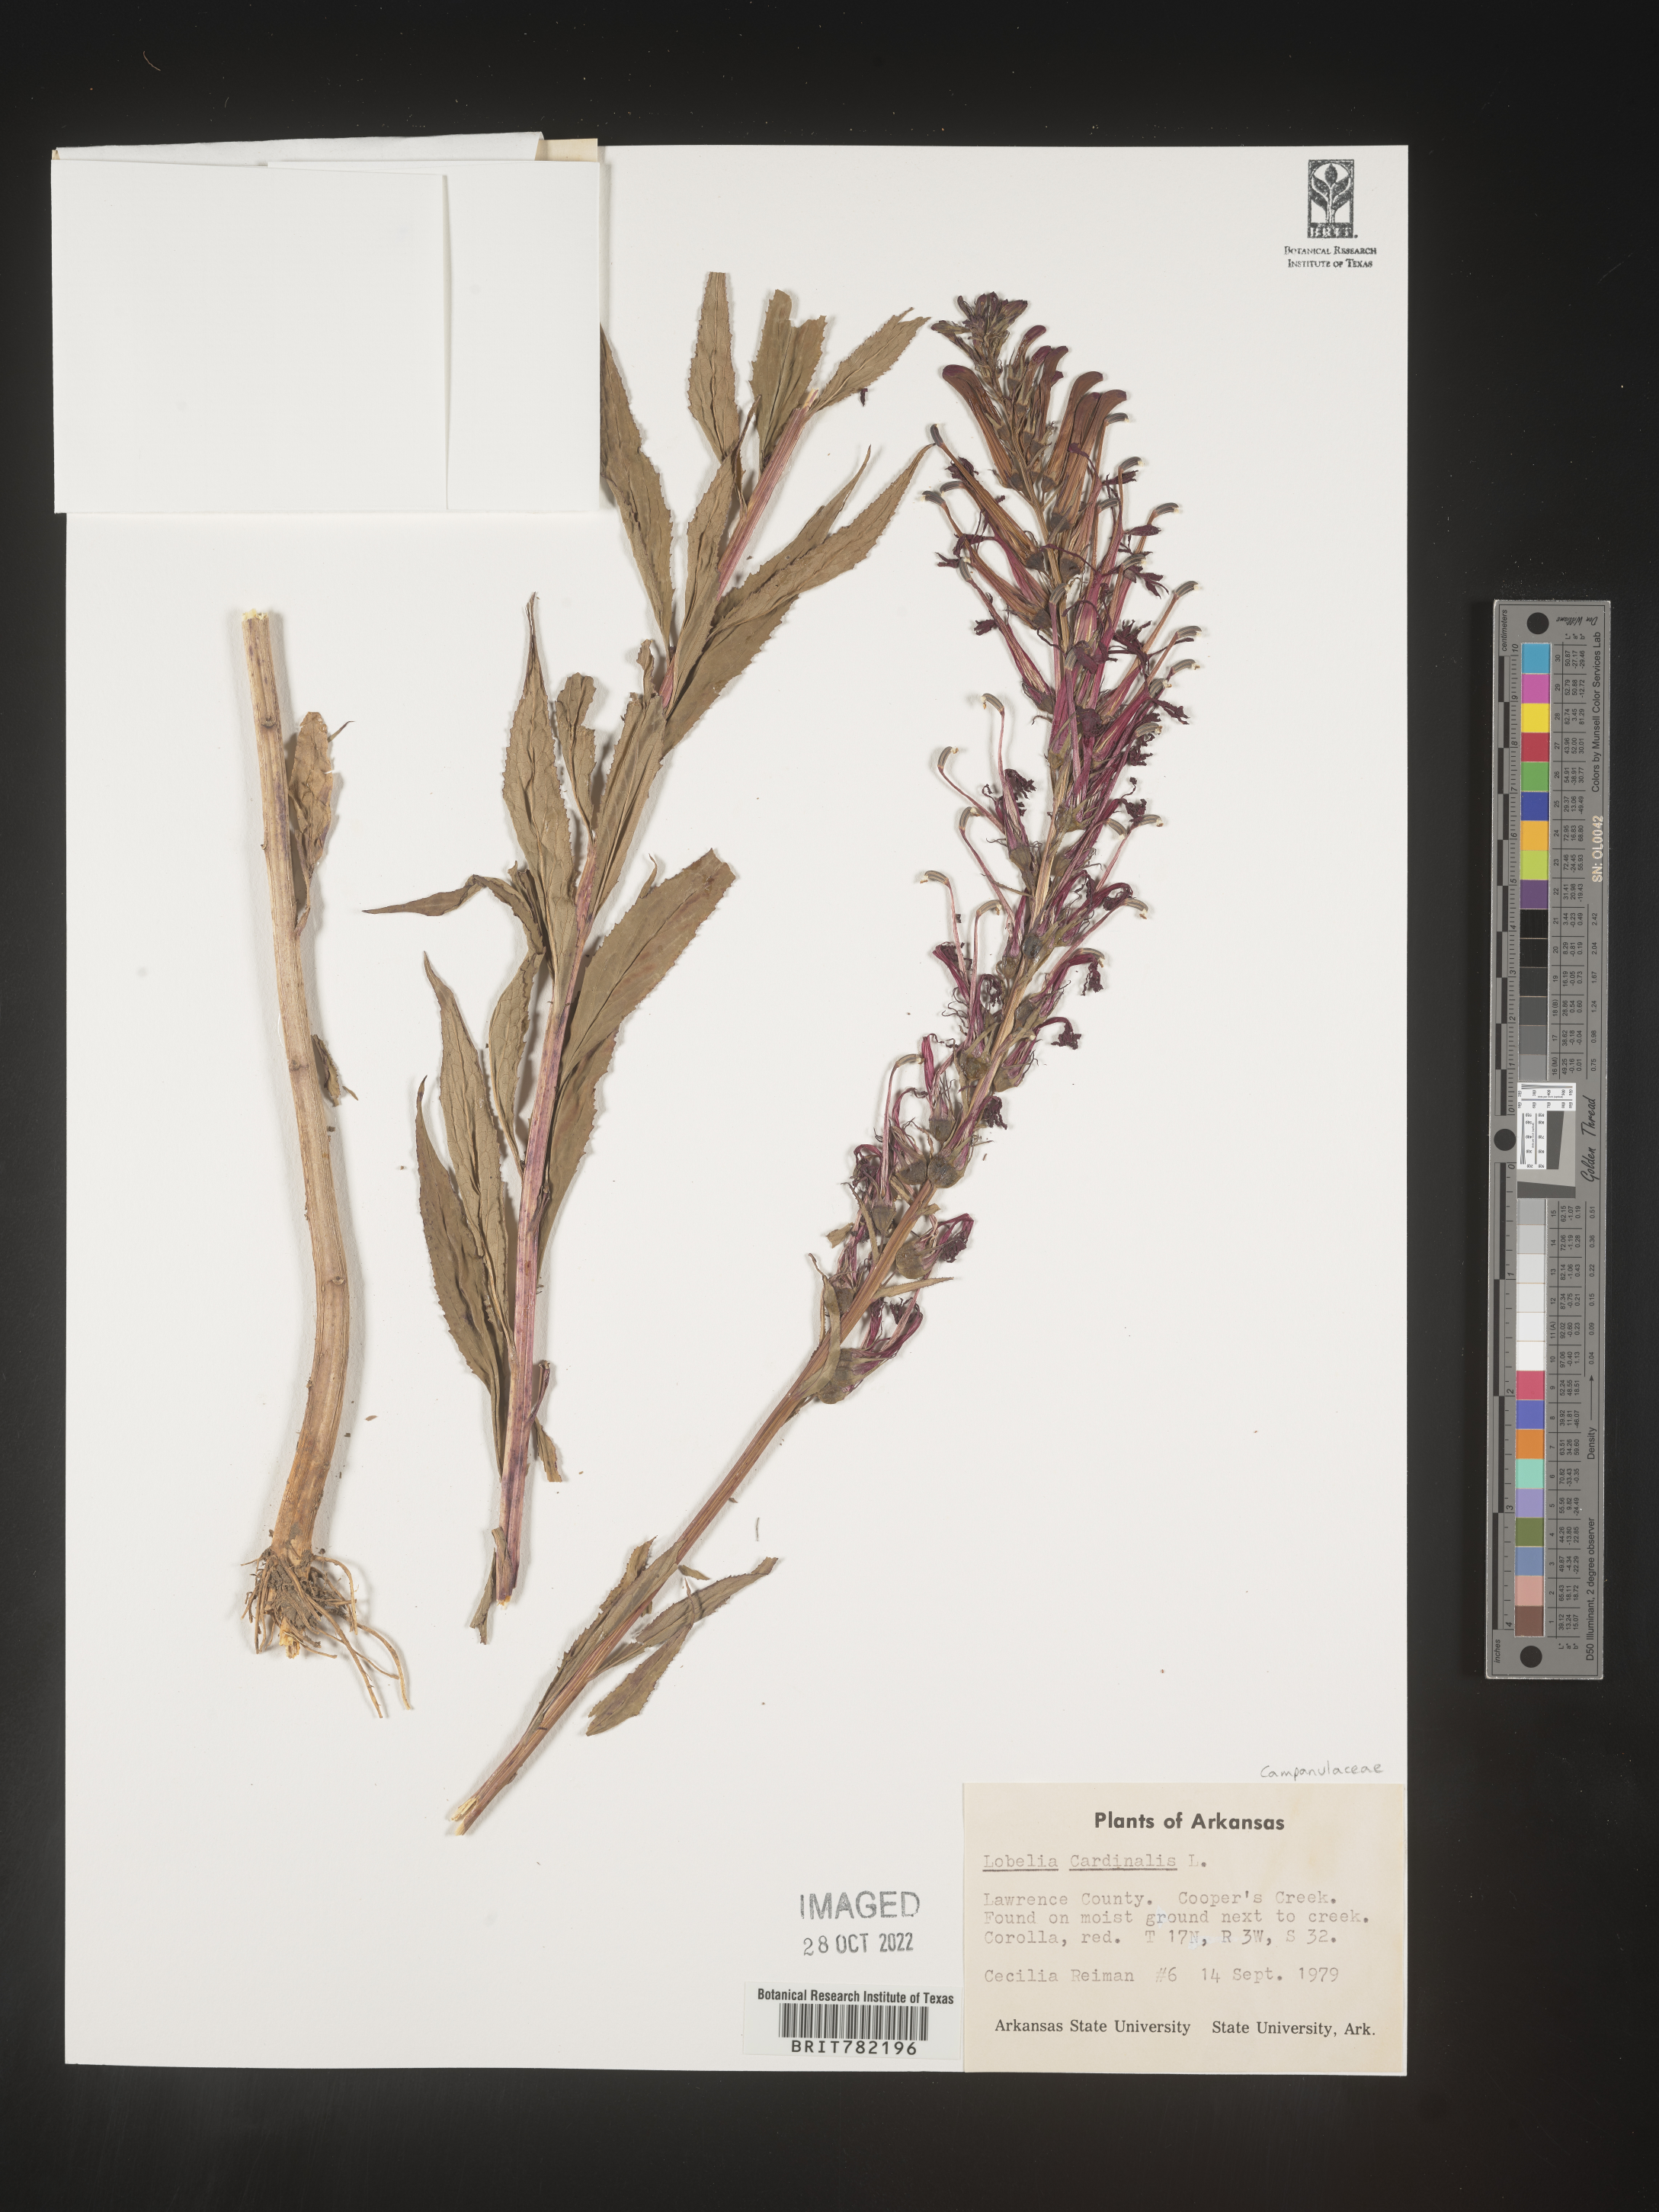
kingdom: Plantae
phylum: Tracheophyta
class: Magnoliopsida
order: Asterales
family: Campanulaceae
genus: Lobelia
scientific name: Lobelia cardinalis
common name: Cardinal flower
